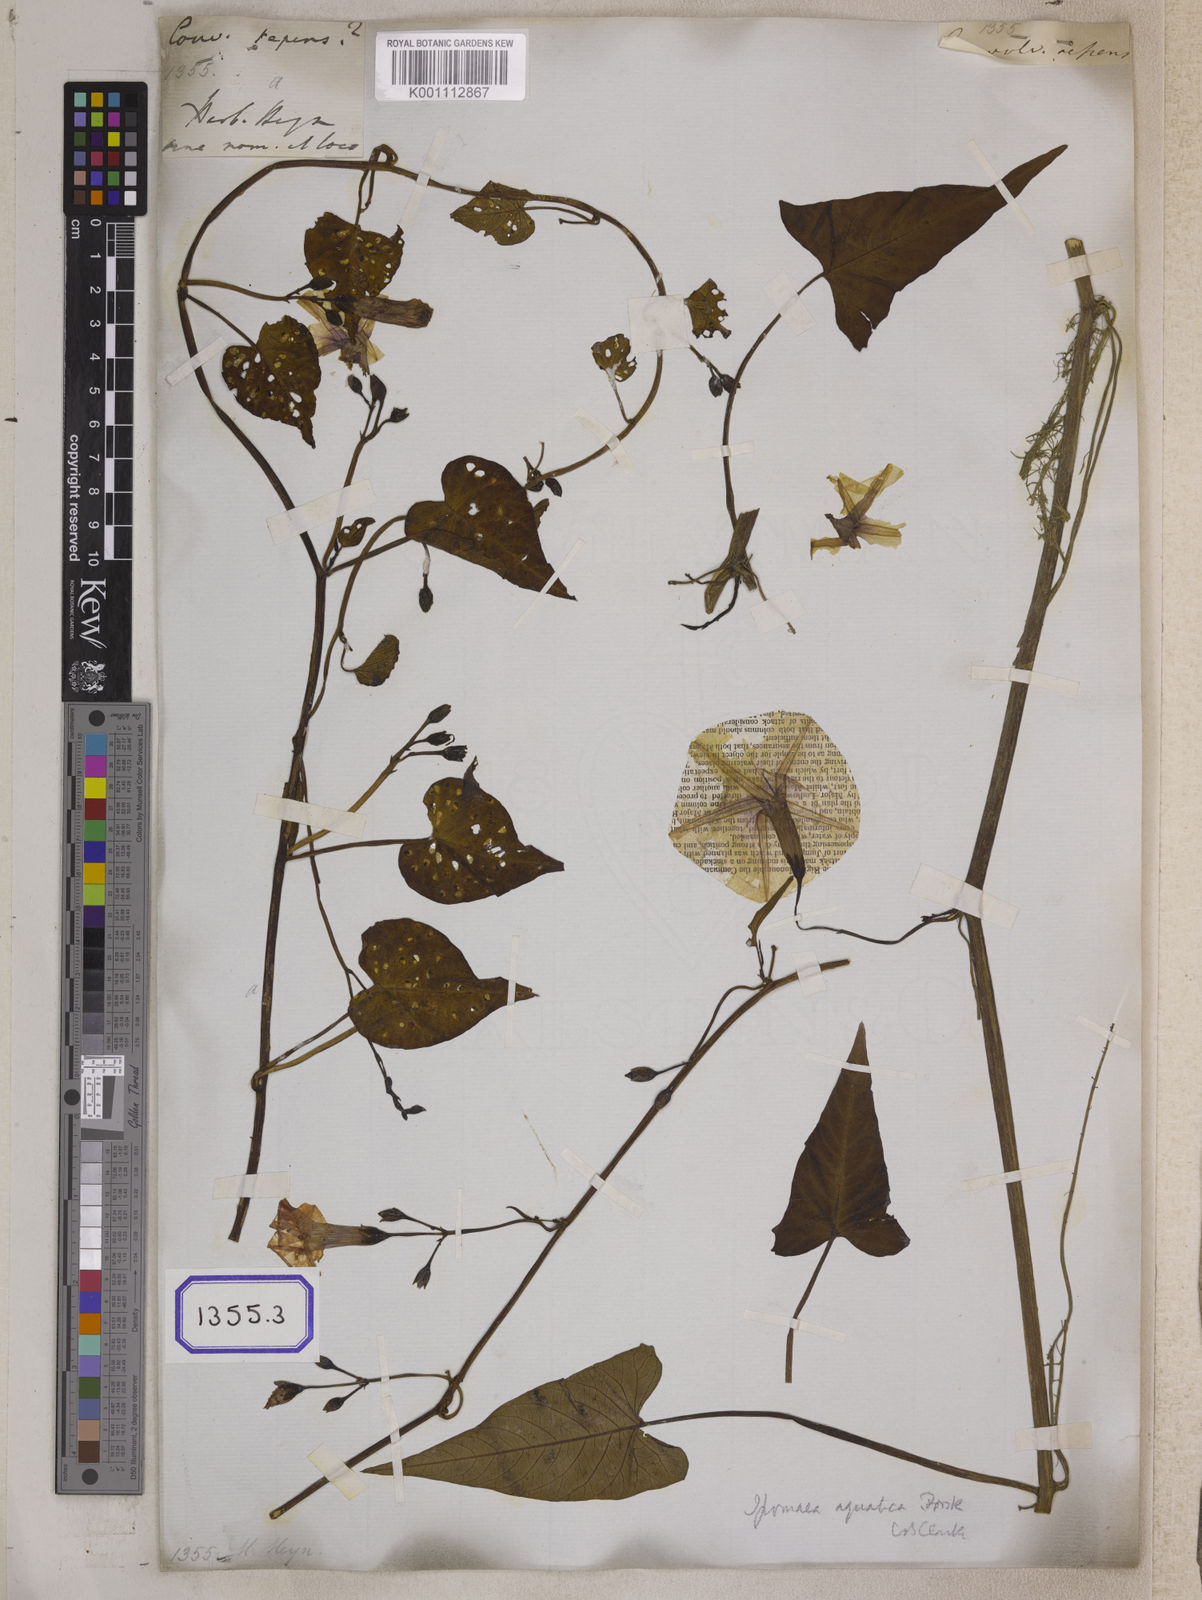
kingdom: Plantae
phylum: Tracheophyta
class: Magnoliopsida
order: Solanales
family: Convolvulaceae
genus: Calystegia
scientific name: Calystegia sepium
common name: Hedge bindweed
